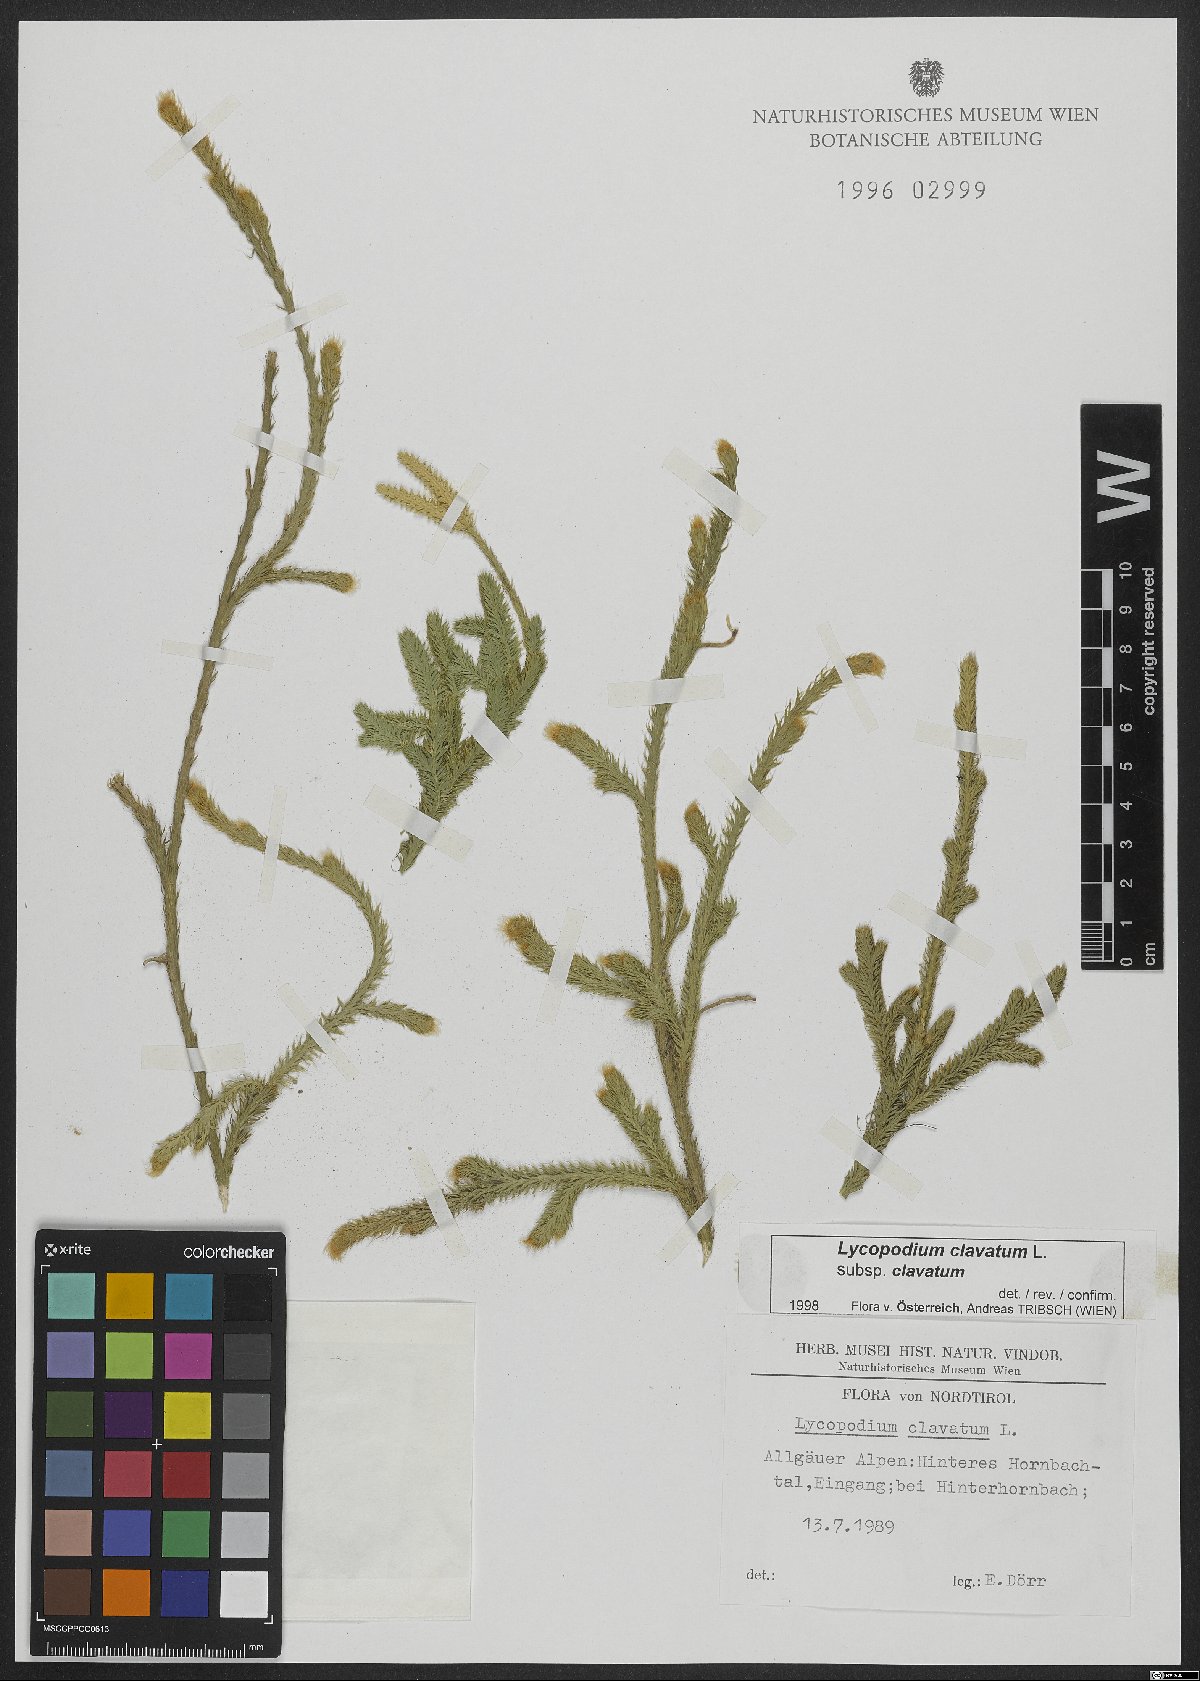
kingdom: Plantae
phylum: Tracheophyta
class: Lycopodiopsida
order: Lycopodiales
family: Lycopodiaceae
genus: Lycopodium
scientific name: Lycopodium clavatum
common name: Stag's-horn clubmoss
